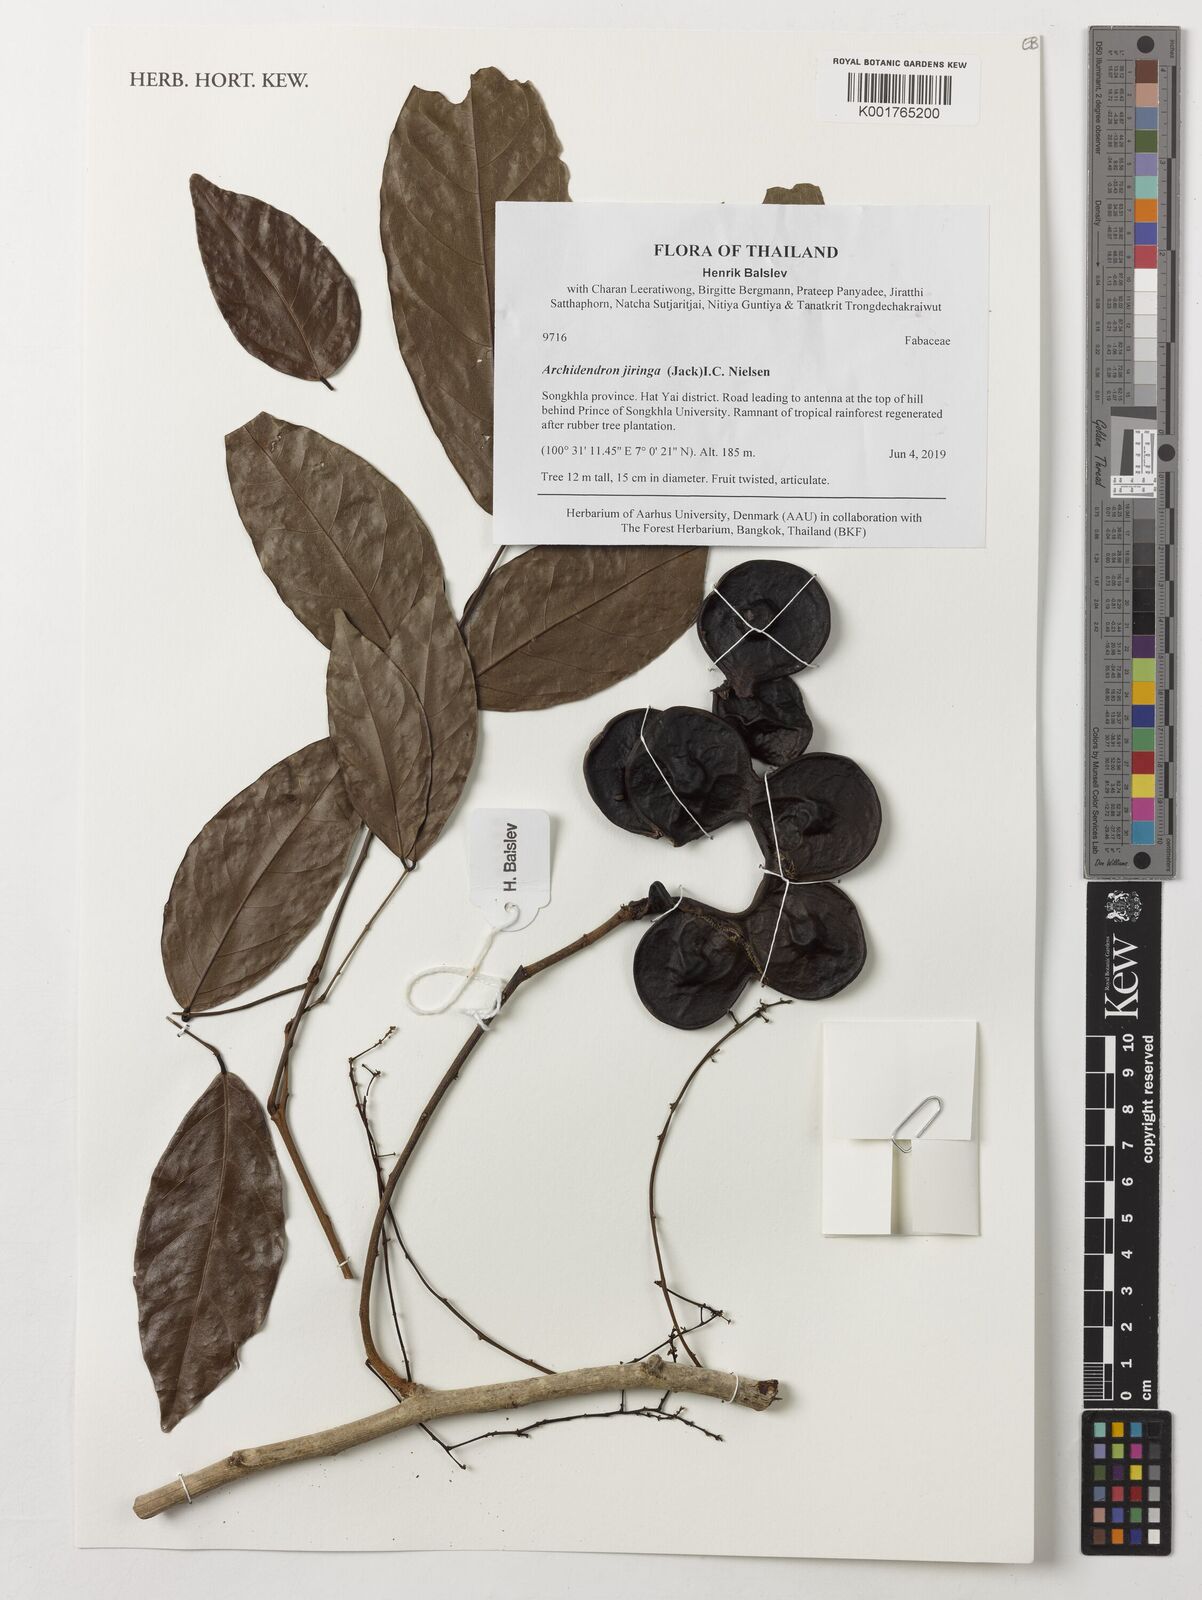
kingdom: Plantae
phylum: Tracheophyta
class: Magnoliopsida
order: Fabales
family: Fabaceae
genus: Archidendron
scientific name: Archidendron jiringa
